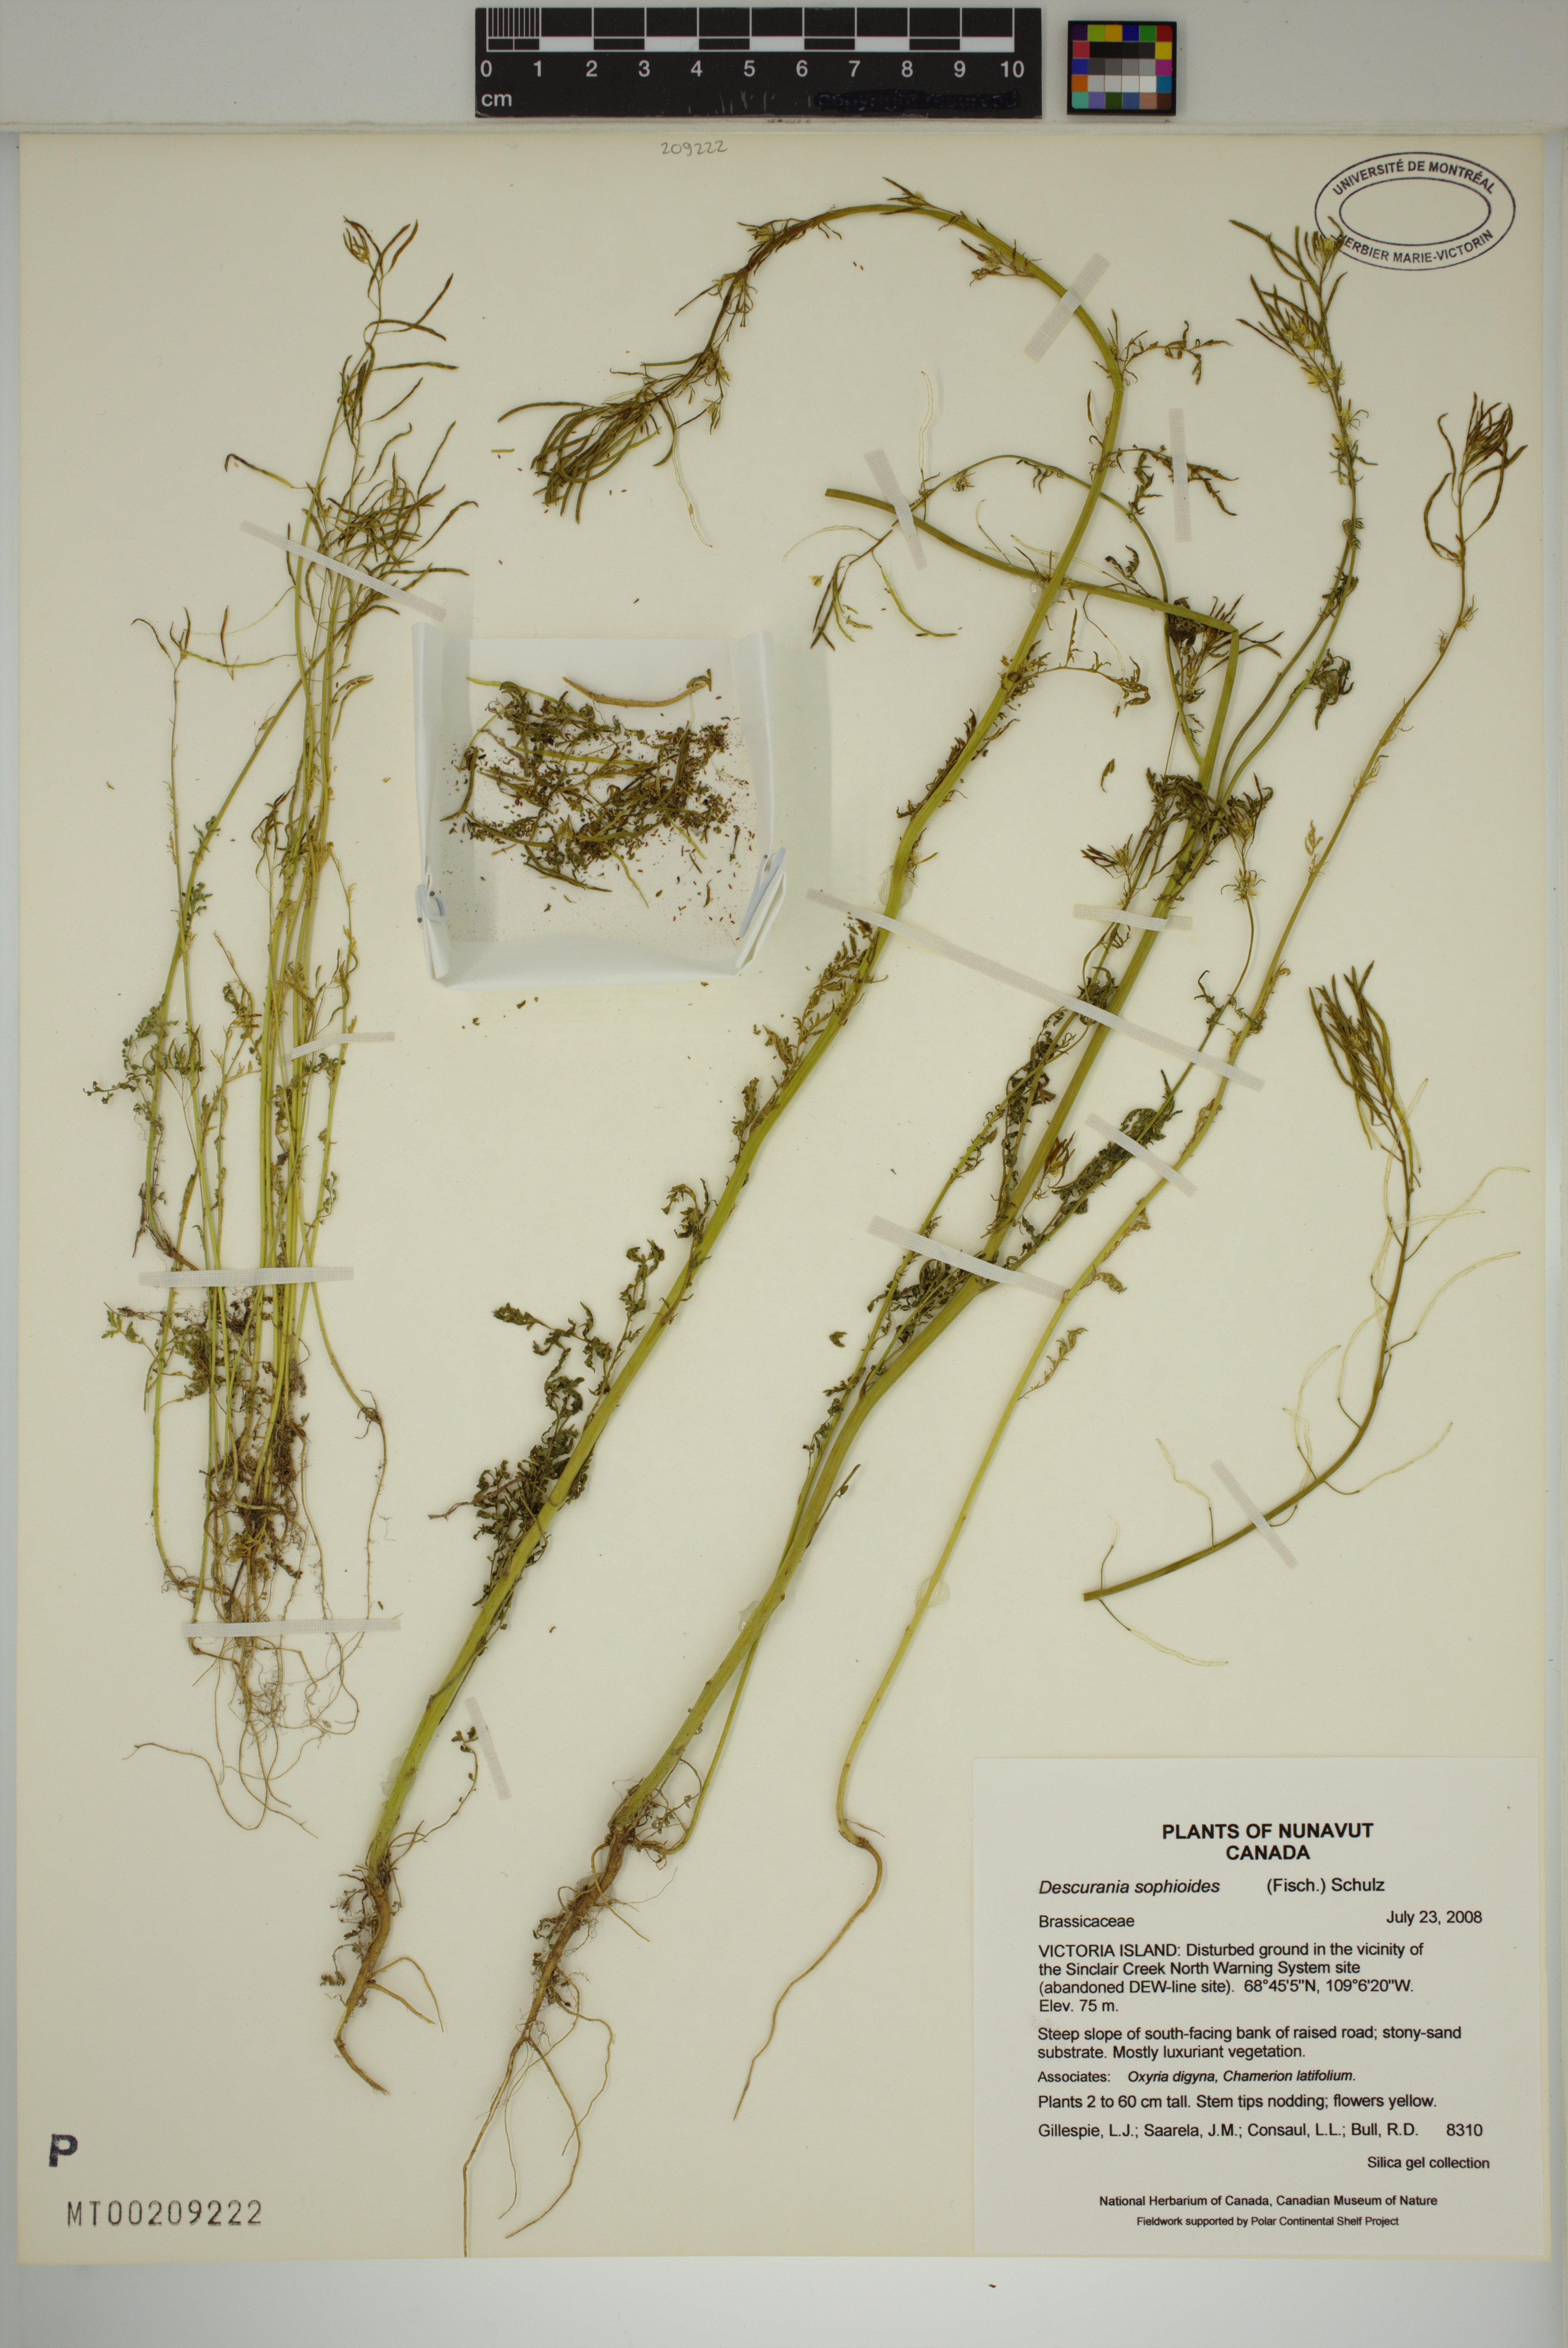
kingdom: Plantae
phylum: Tracheophyta
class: Magnoliopsida
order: Brassicales
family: Brassicaceae
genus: Descurainia
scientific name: Descurainia sophioides
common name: Northern tansy mustard
